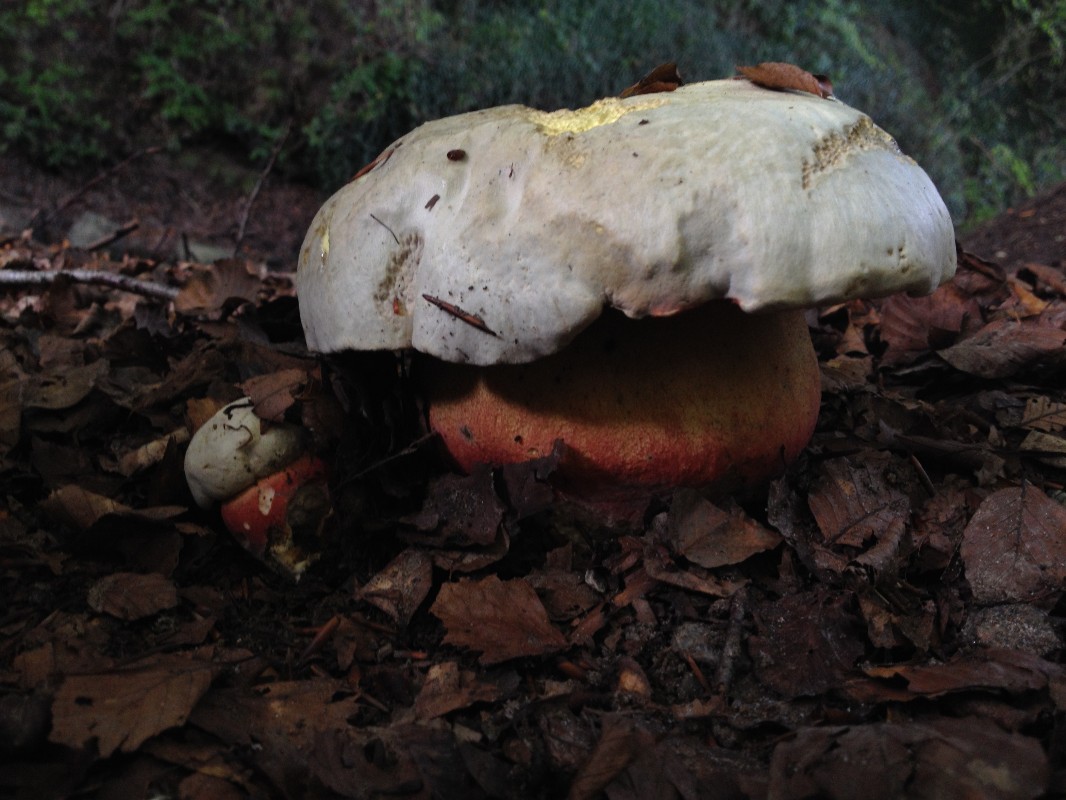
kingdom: Fungi
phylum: Basidiomycota
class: Agaricomycetes
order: Boletales
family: Boletaceae
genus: Rubroboletus
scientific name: Rubroboletus satanas
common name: Satans rørhat
